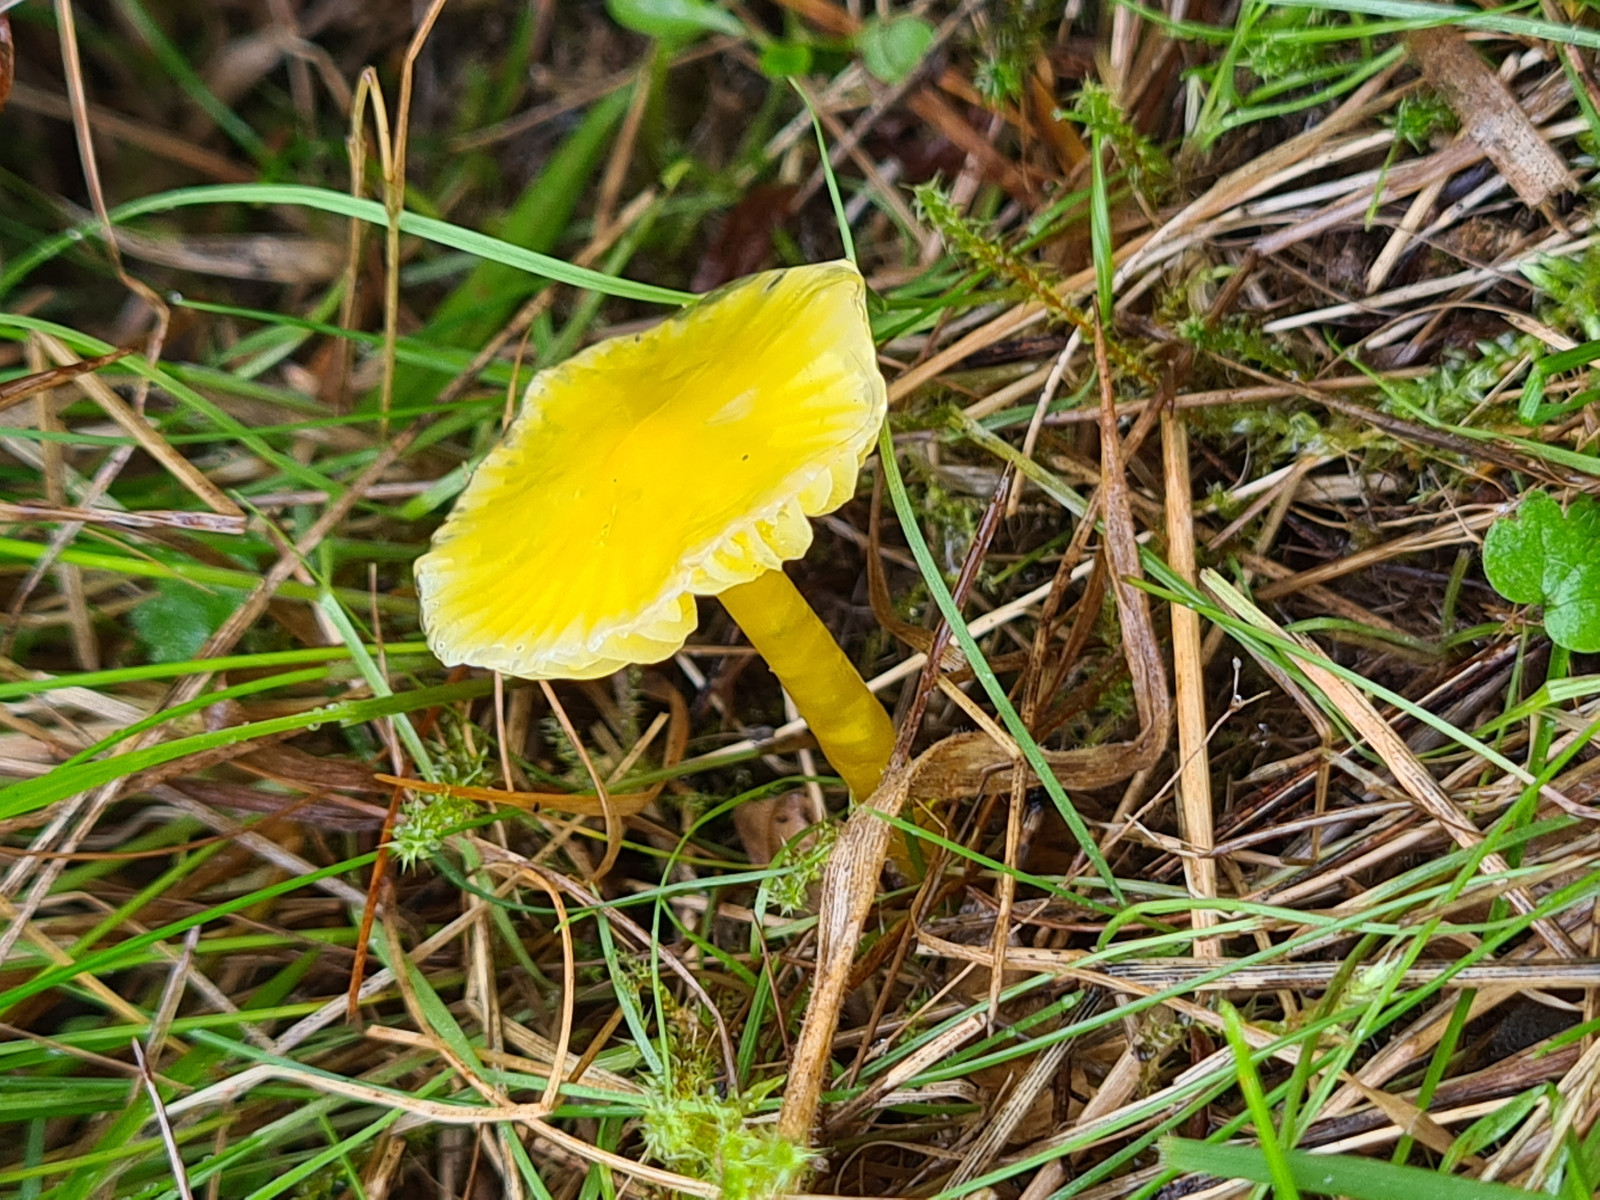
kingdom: Fungi
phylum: Basidiomycota
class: Agaricomycetes
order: Agaricales
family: Hygrophoraceae
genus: Hygrocybe
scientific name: Hygrocybe
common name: vokshat
